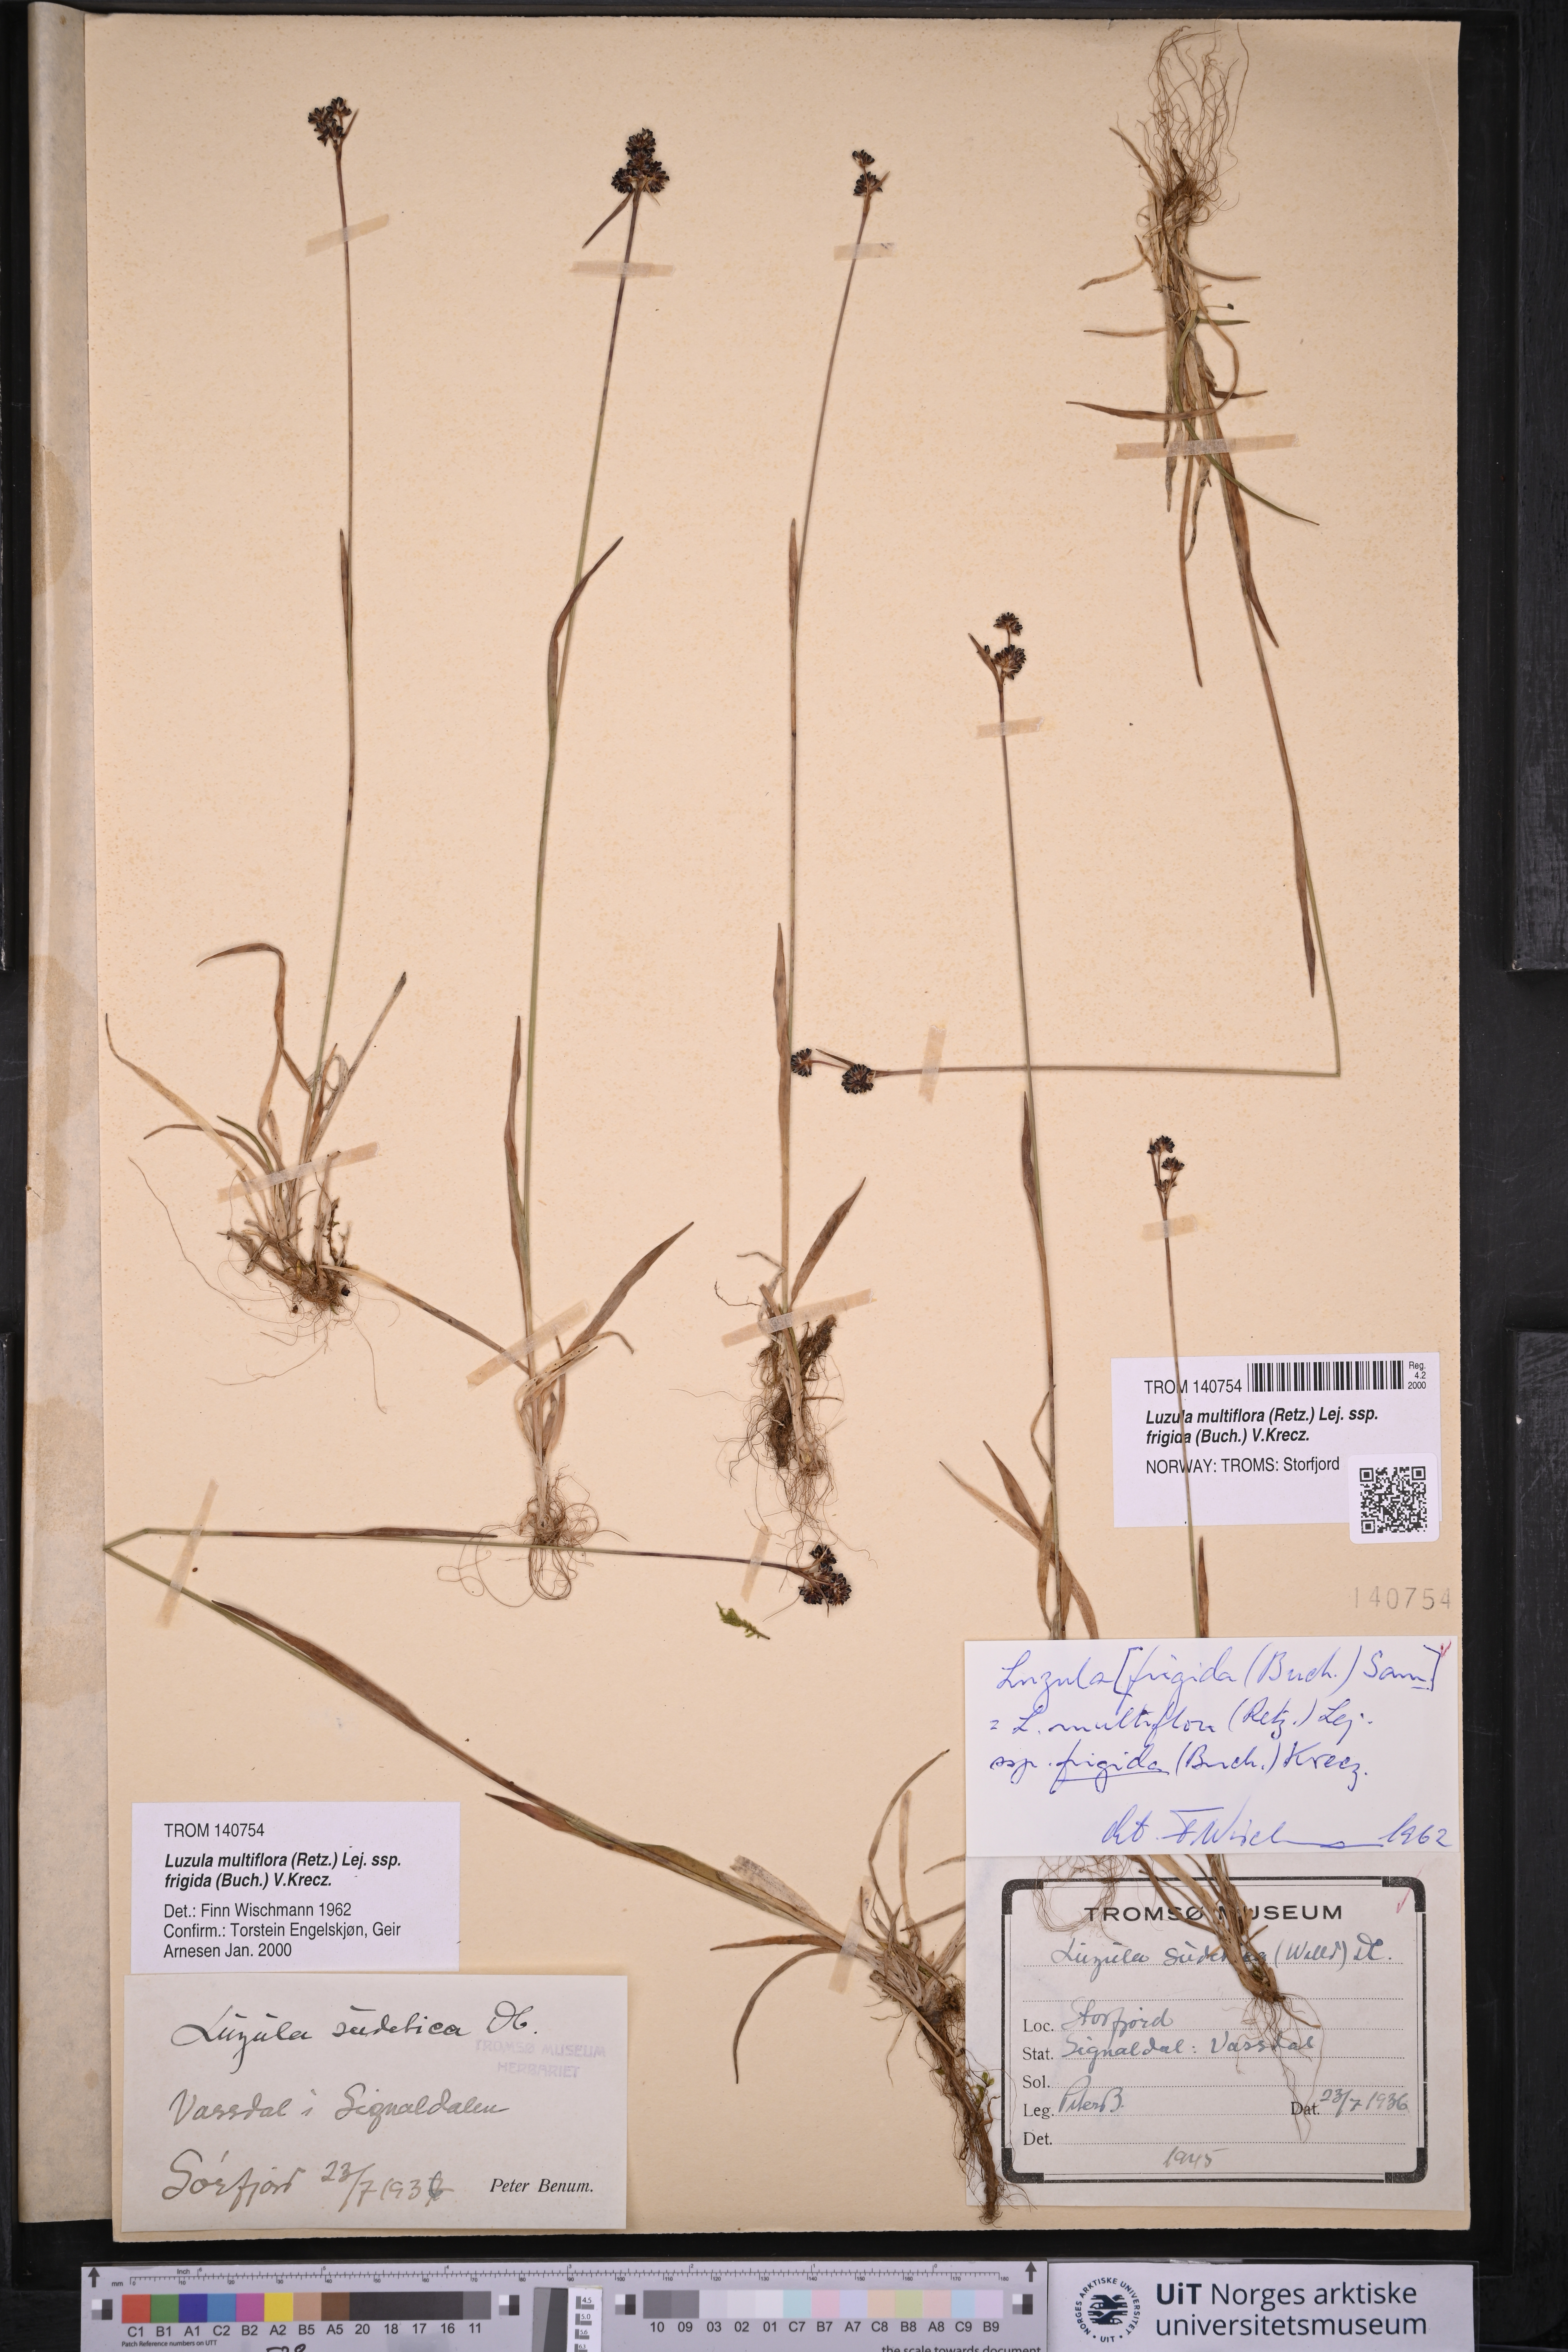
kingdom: Plantae
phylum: Tracheophyta
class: Liliopsida
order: Poales
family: Juncaceae
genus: Luzula
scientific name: Luzula multiflora
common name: Heath wood-rush
